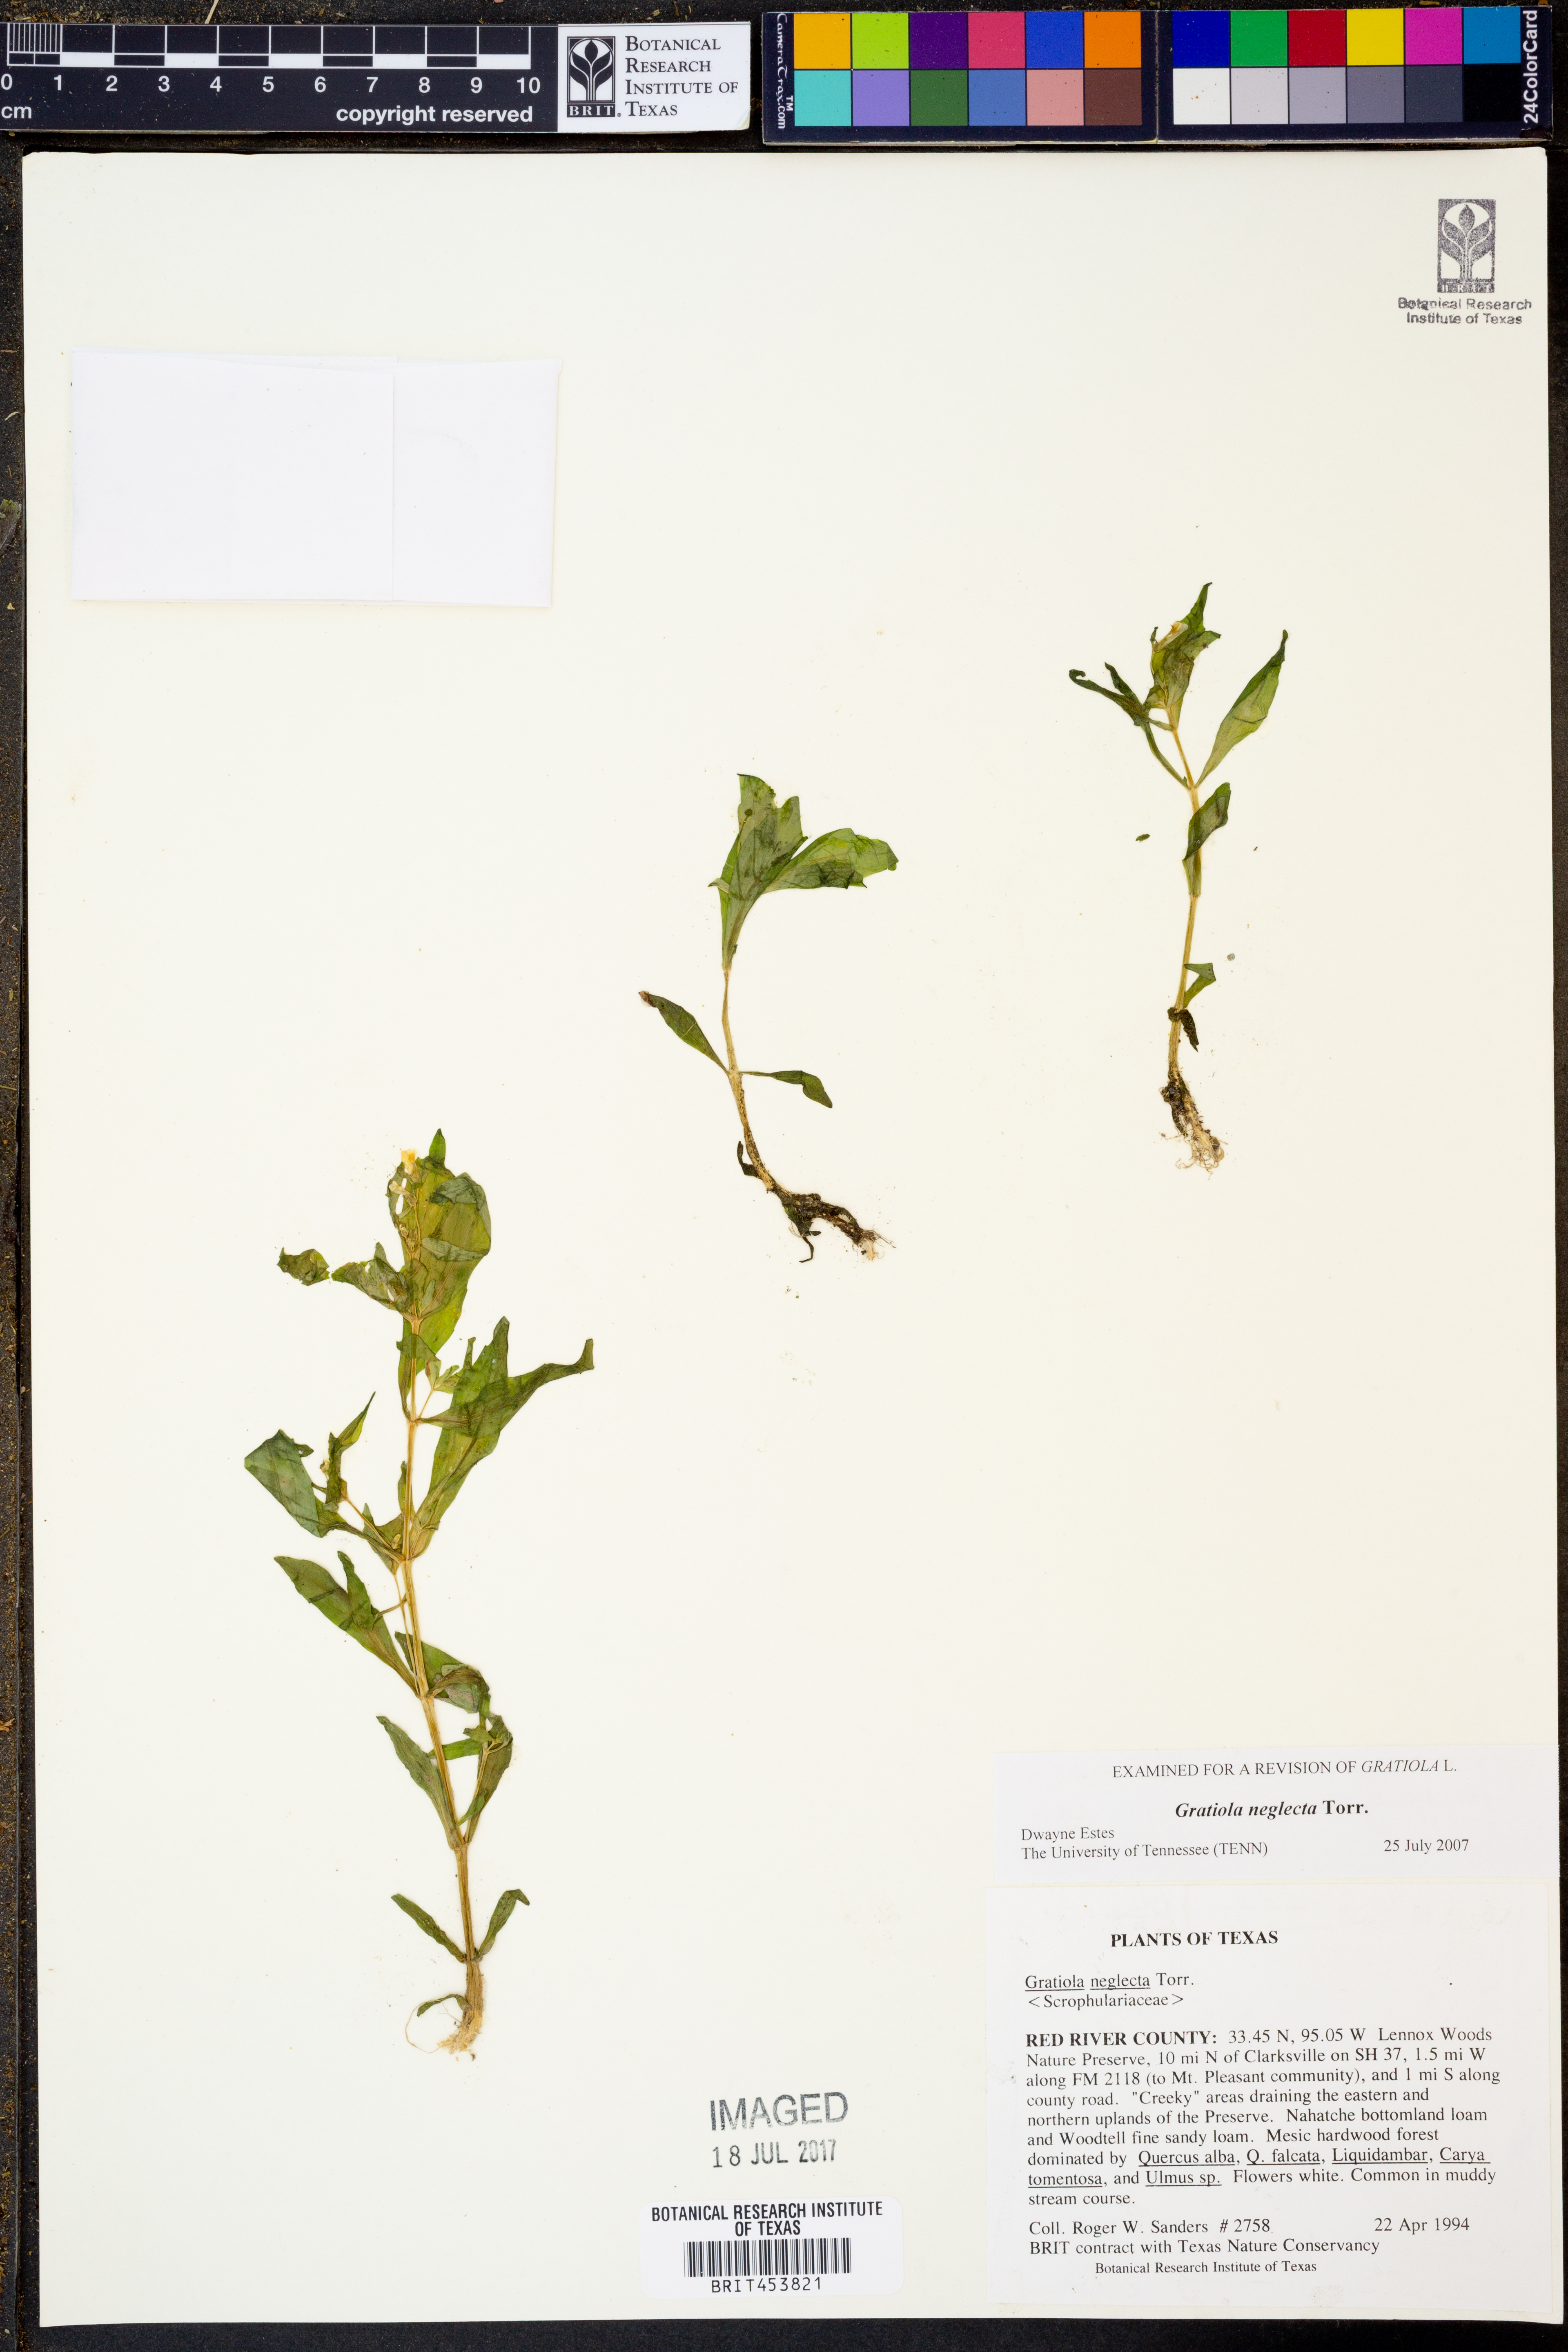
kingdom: Plantae
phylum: Tracheophyta
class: Magnoliopsida
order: Lamiales
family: Plantaginaceae
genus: Gratiola
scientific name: Gratiola neglecta
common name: American hedge-hyssop
